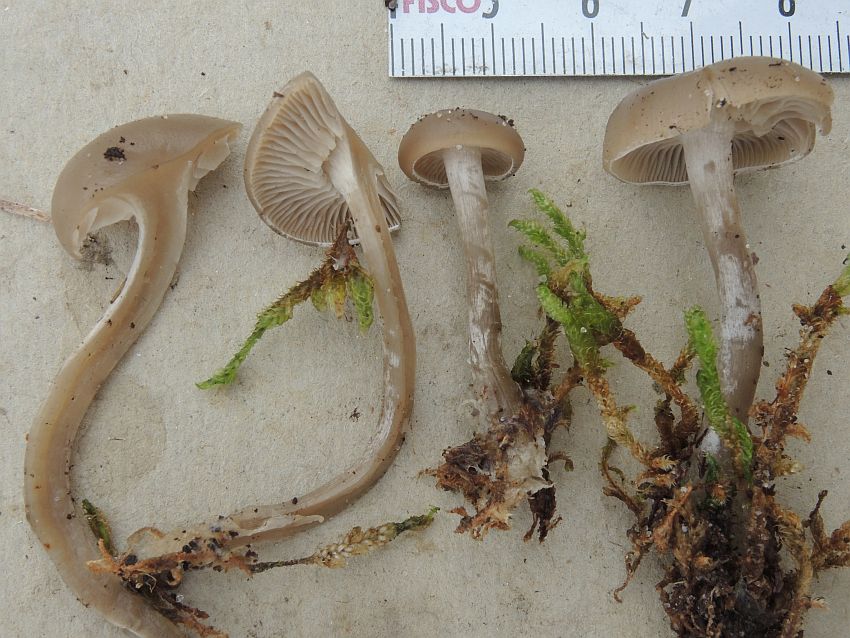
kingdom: Fungi
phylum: Basidiomycota
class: Agaricomycetes
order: Agaricales
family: Tricholomataceae
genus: Clitocybe
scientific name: Clitocybe metachroa
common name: grå tragthat
